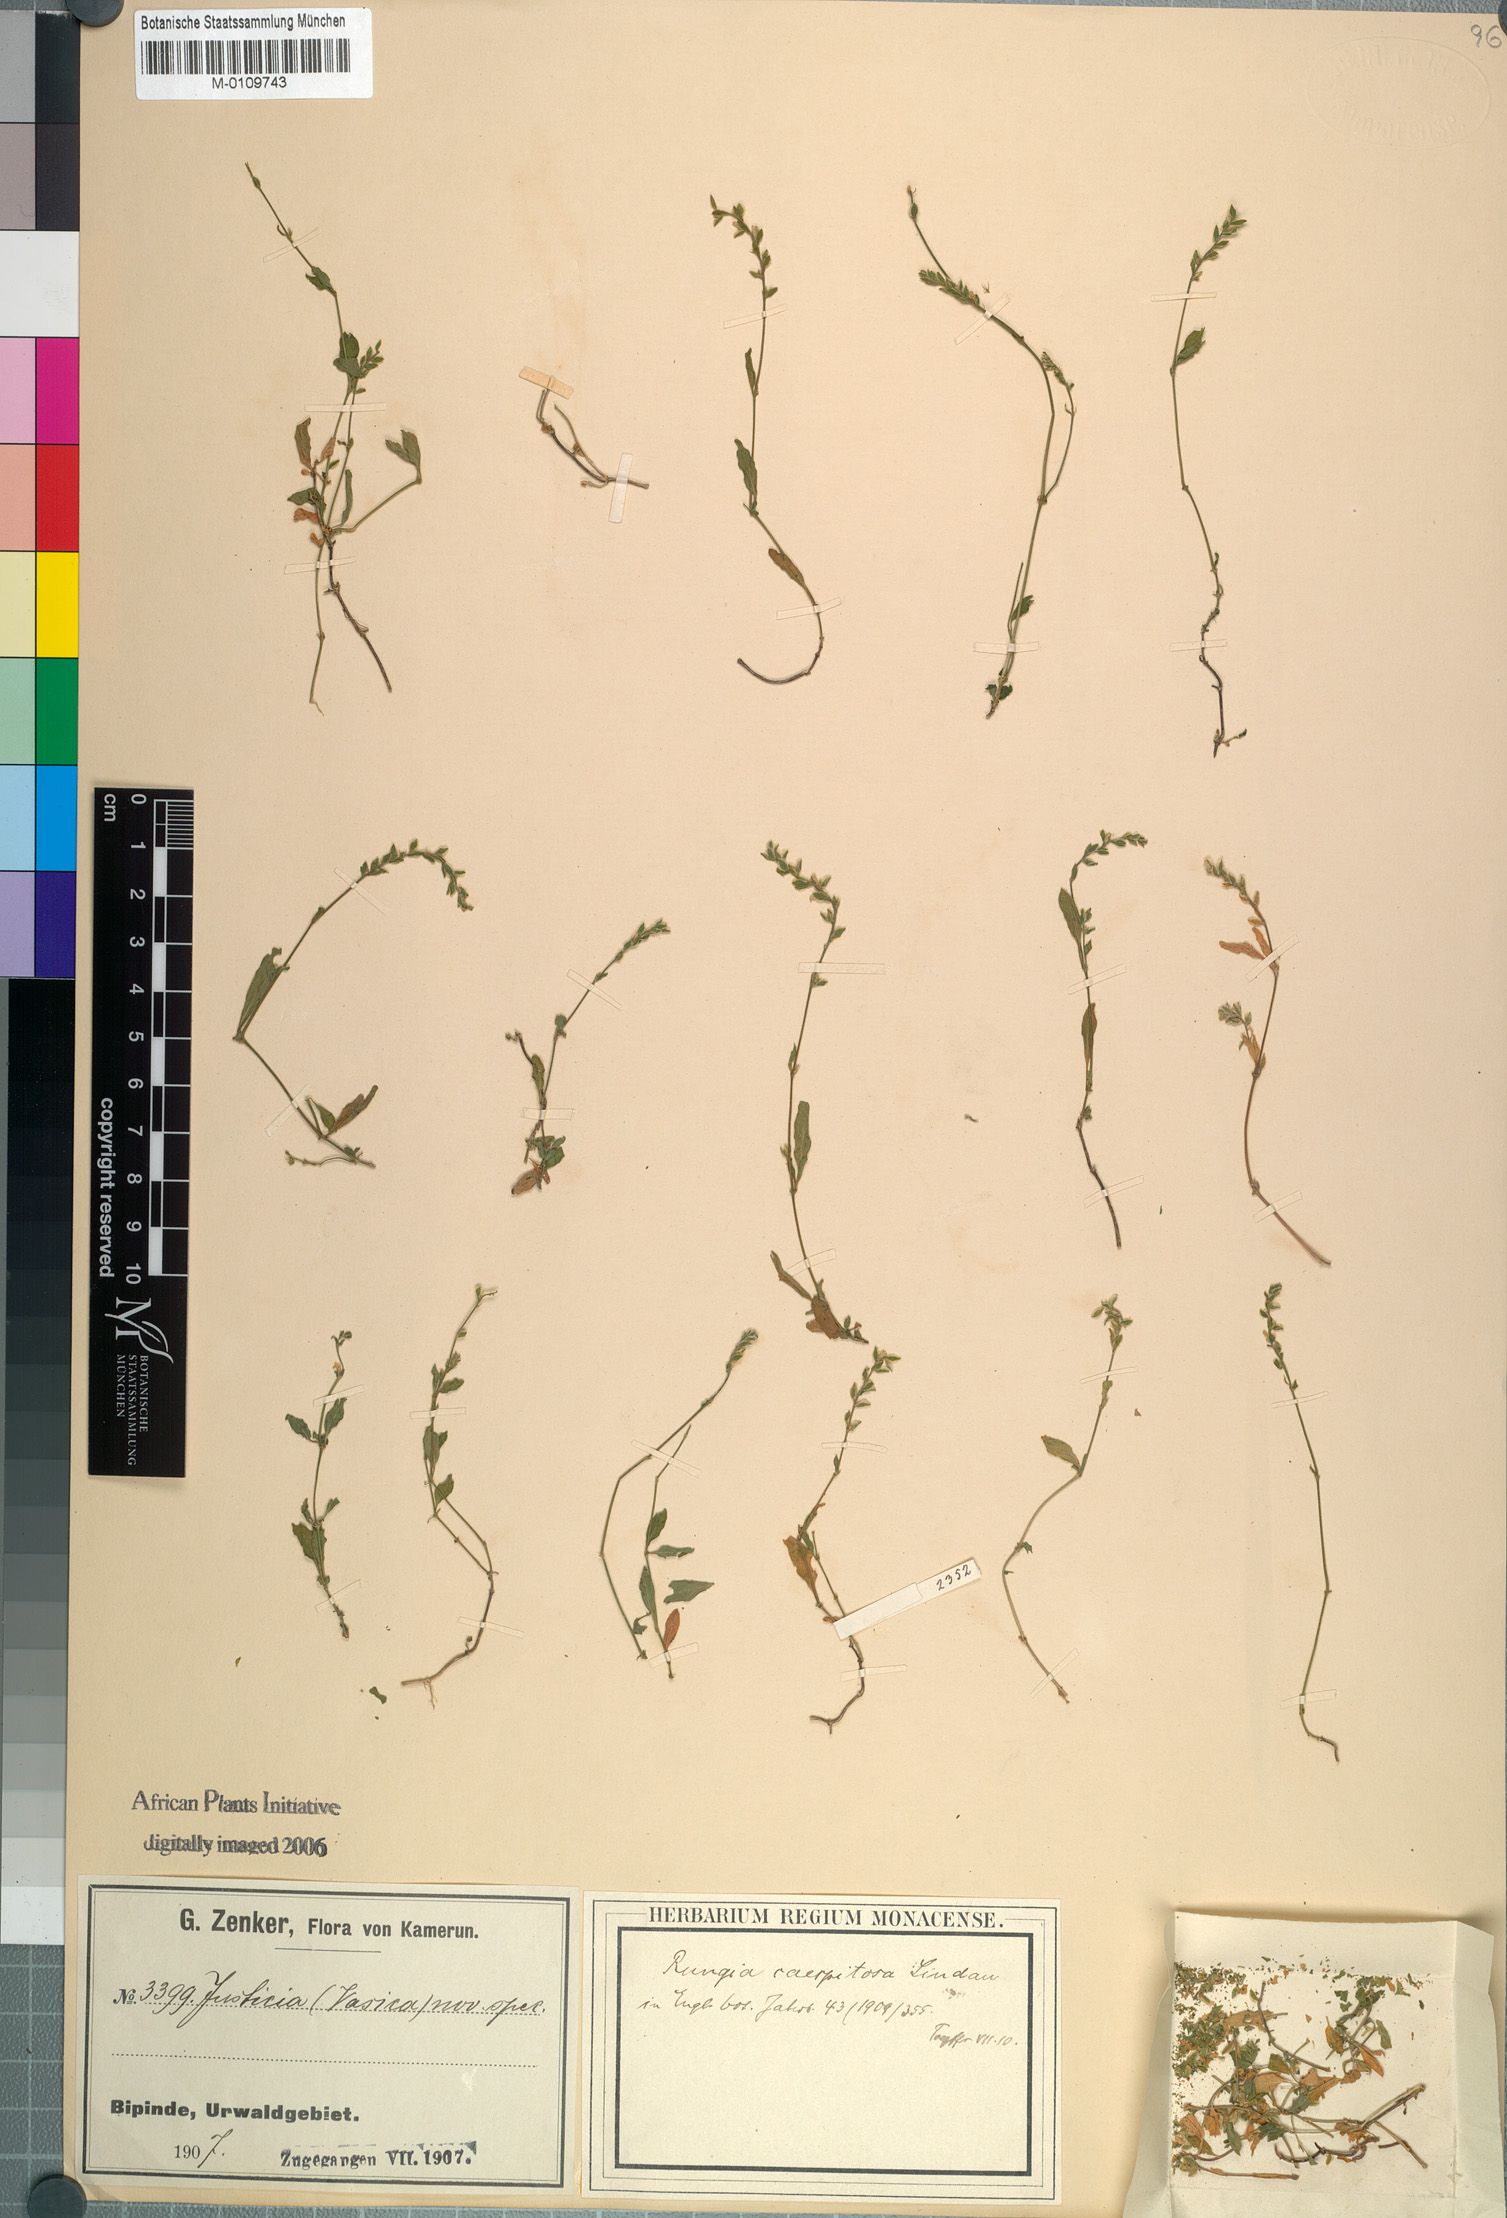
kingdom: Plantae
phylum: Tracheophyta
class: Magnoliopsida
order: Lamiales
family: Acanthaceae
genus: Rungia
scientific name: Rungia caespitosa
